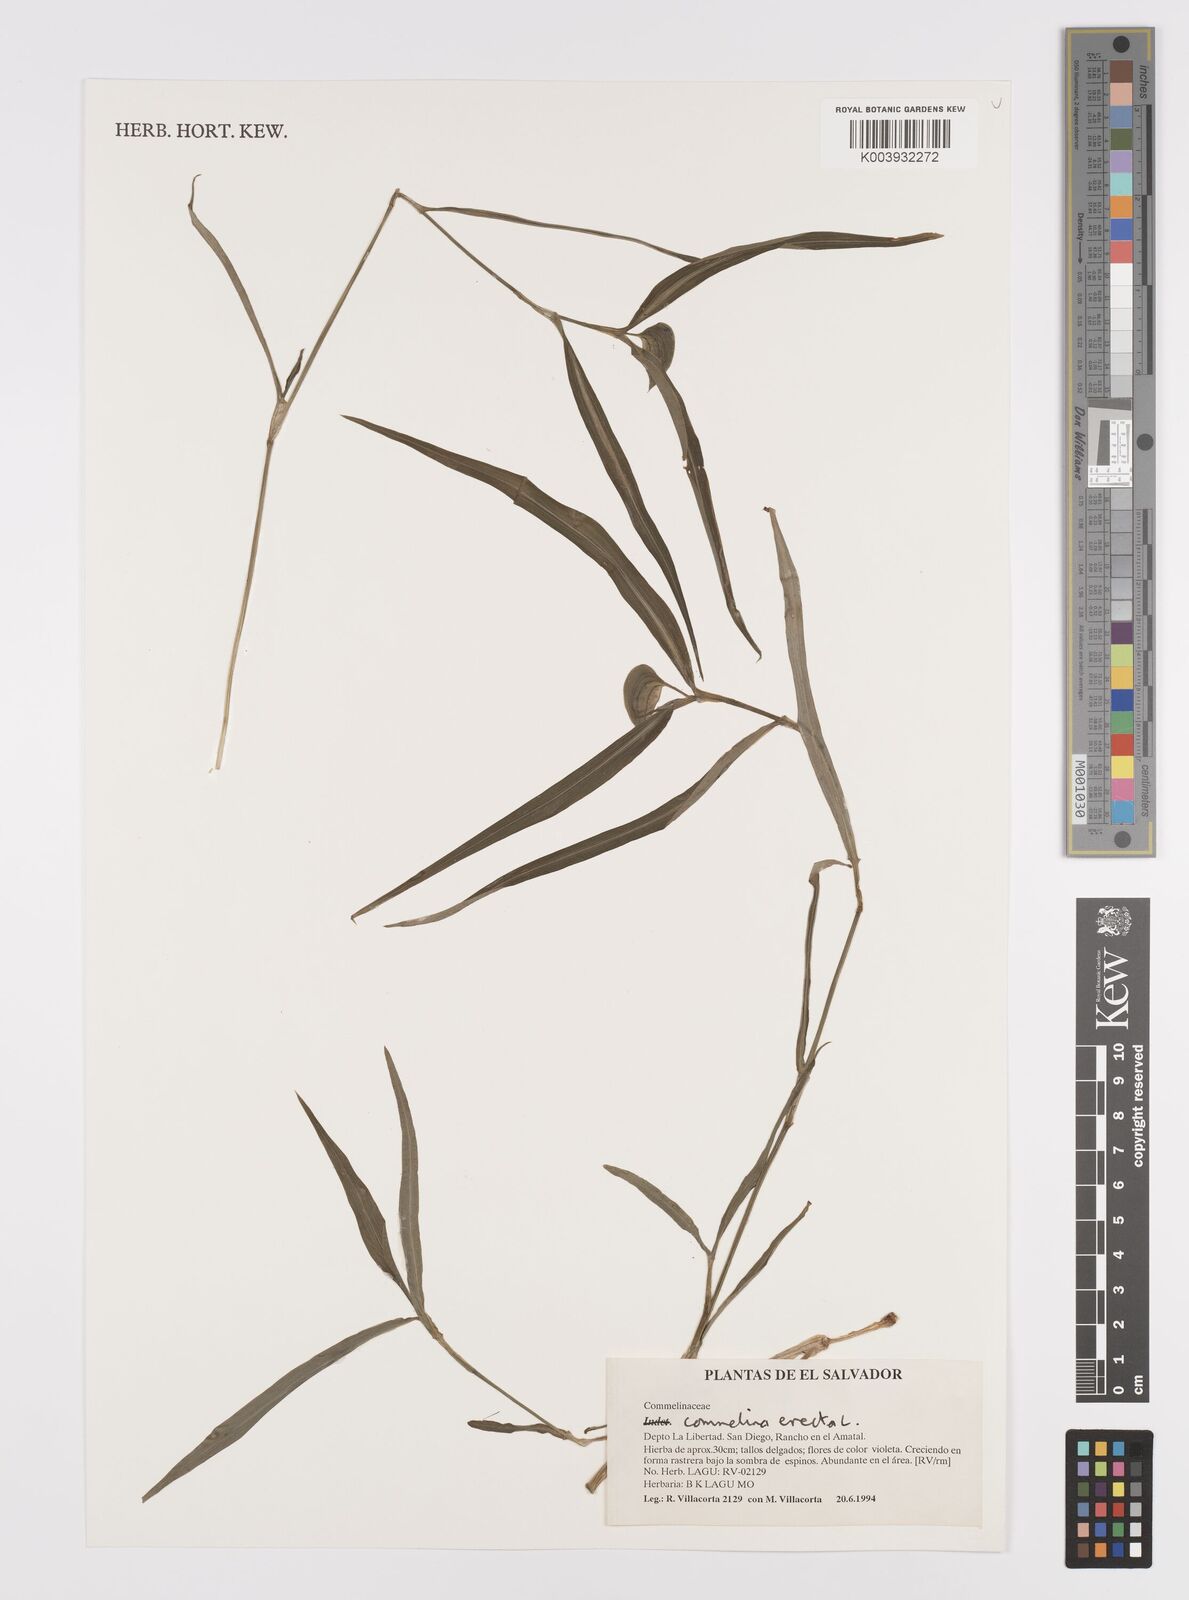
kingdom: Plantae
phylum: Tracheophyta
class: Liliopsida
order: Commelinales
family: Commelinaceae
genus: Commelina
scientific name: Commelina erecta
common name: Blousel blommetjie
